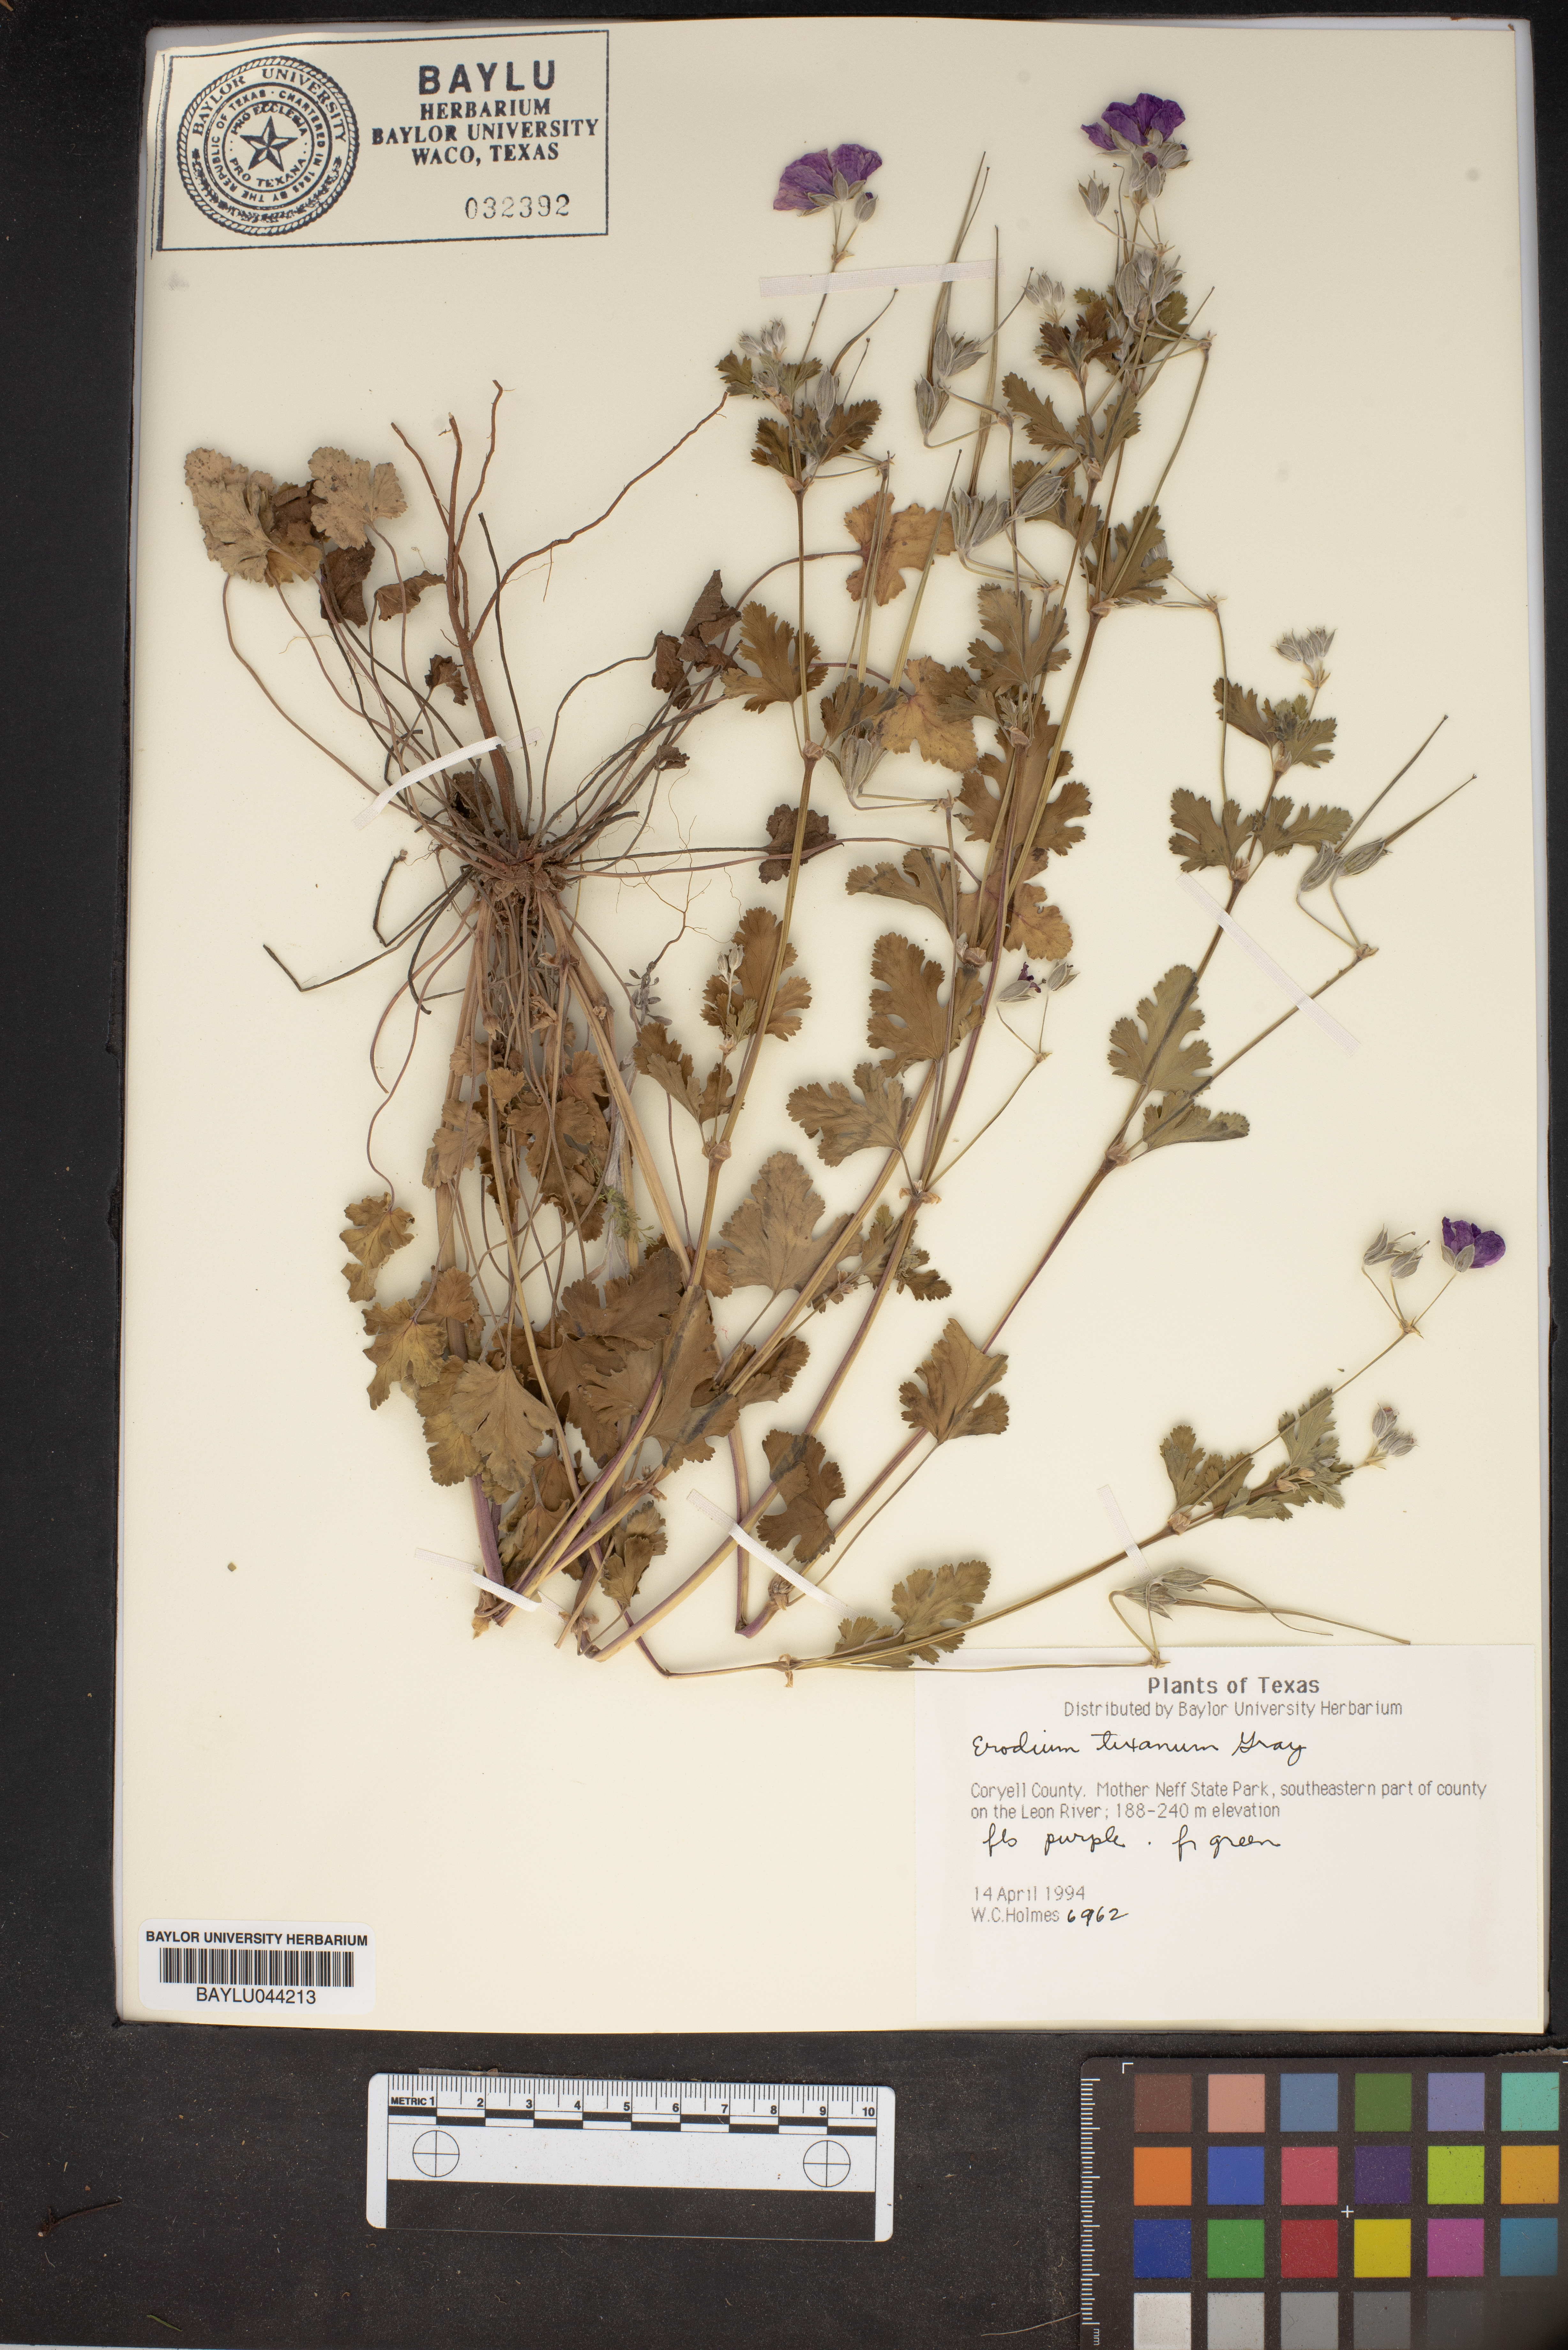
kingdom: Plantae
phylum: Tracheophyta
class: Magnoliopsida
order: Geraniales
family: Geraniaceae
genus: Erodium
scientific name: Erodium texanum
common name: Texas stork's-bill
